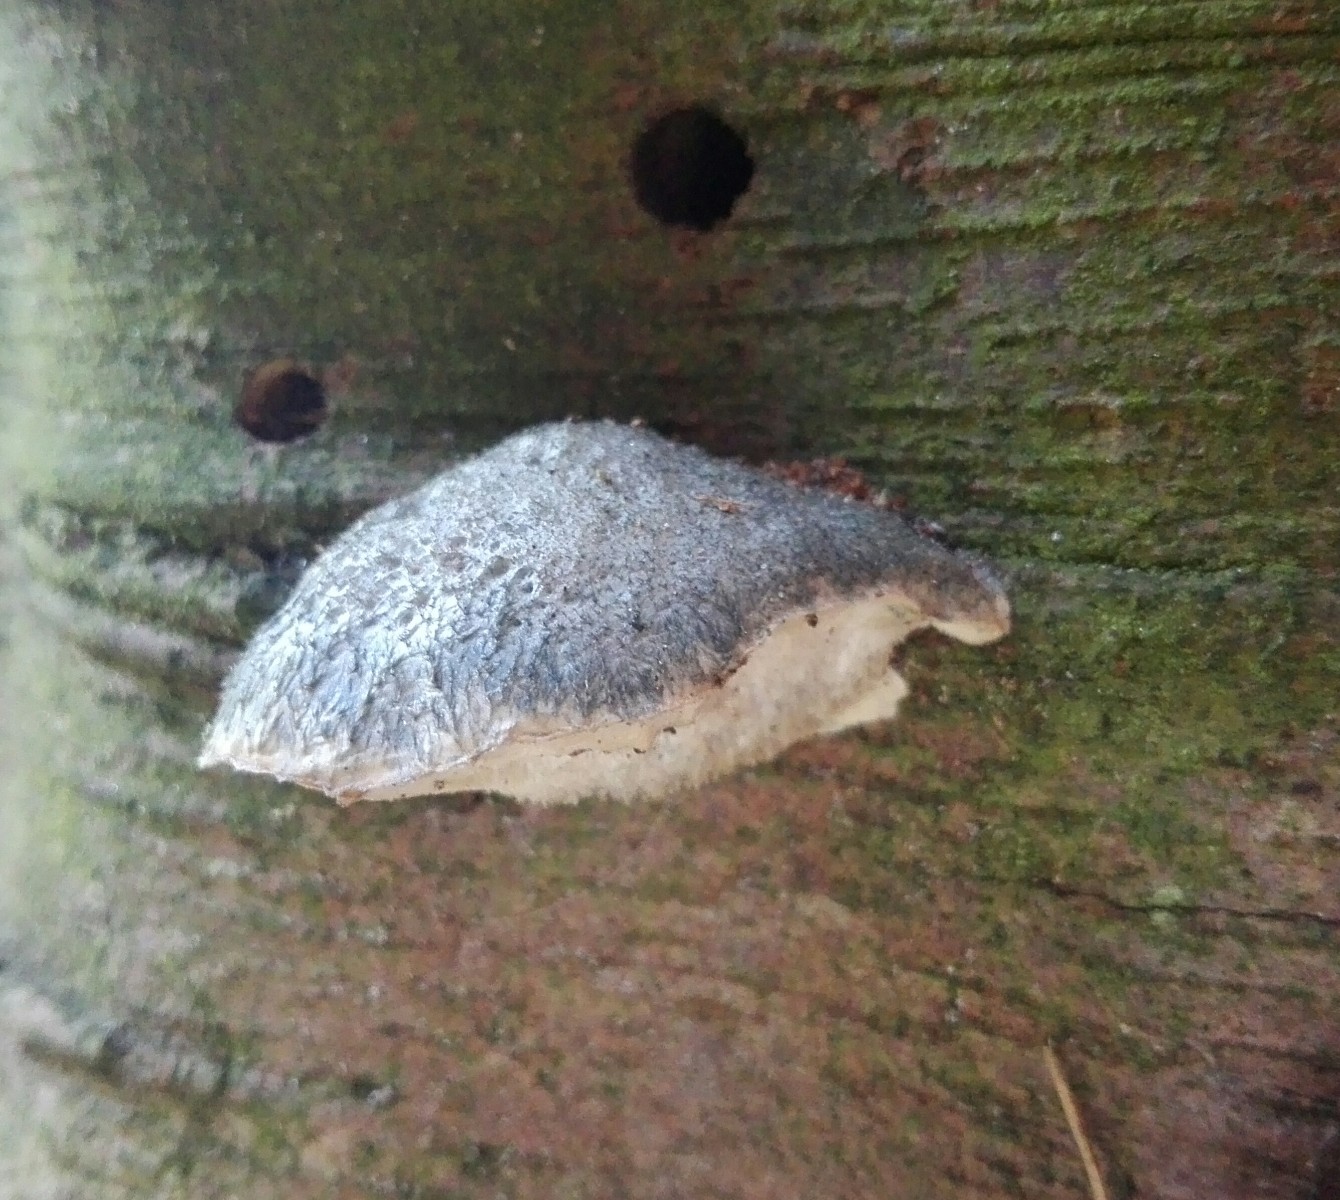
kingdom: Fungi
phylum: Basidiomycota
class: Agaricomycetes
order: Polyporales
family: Polyporaceae
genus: Cyanosporus
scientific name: Cyanosporus caesius
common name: blålig kødporesvamp
